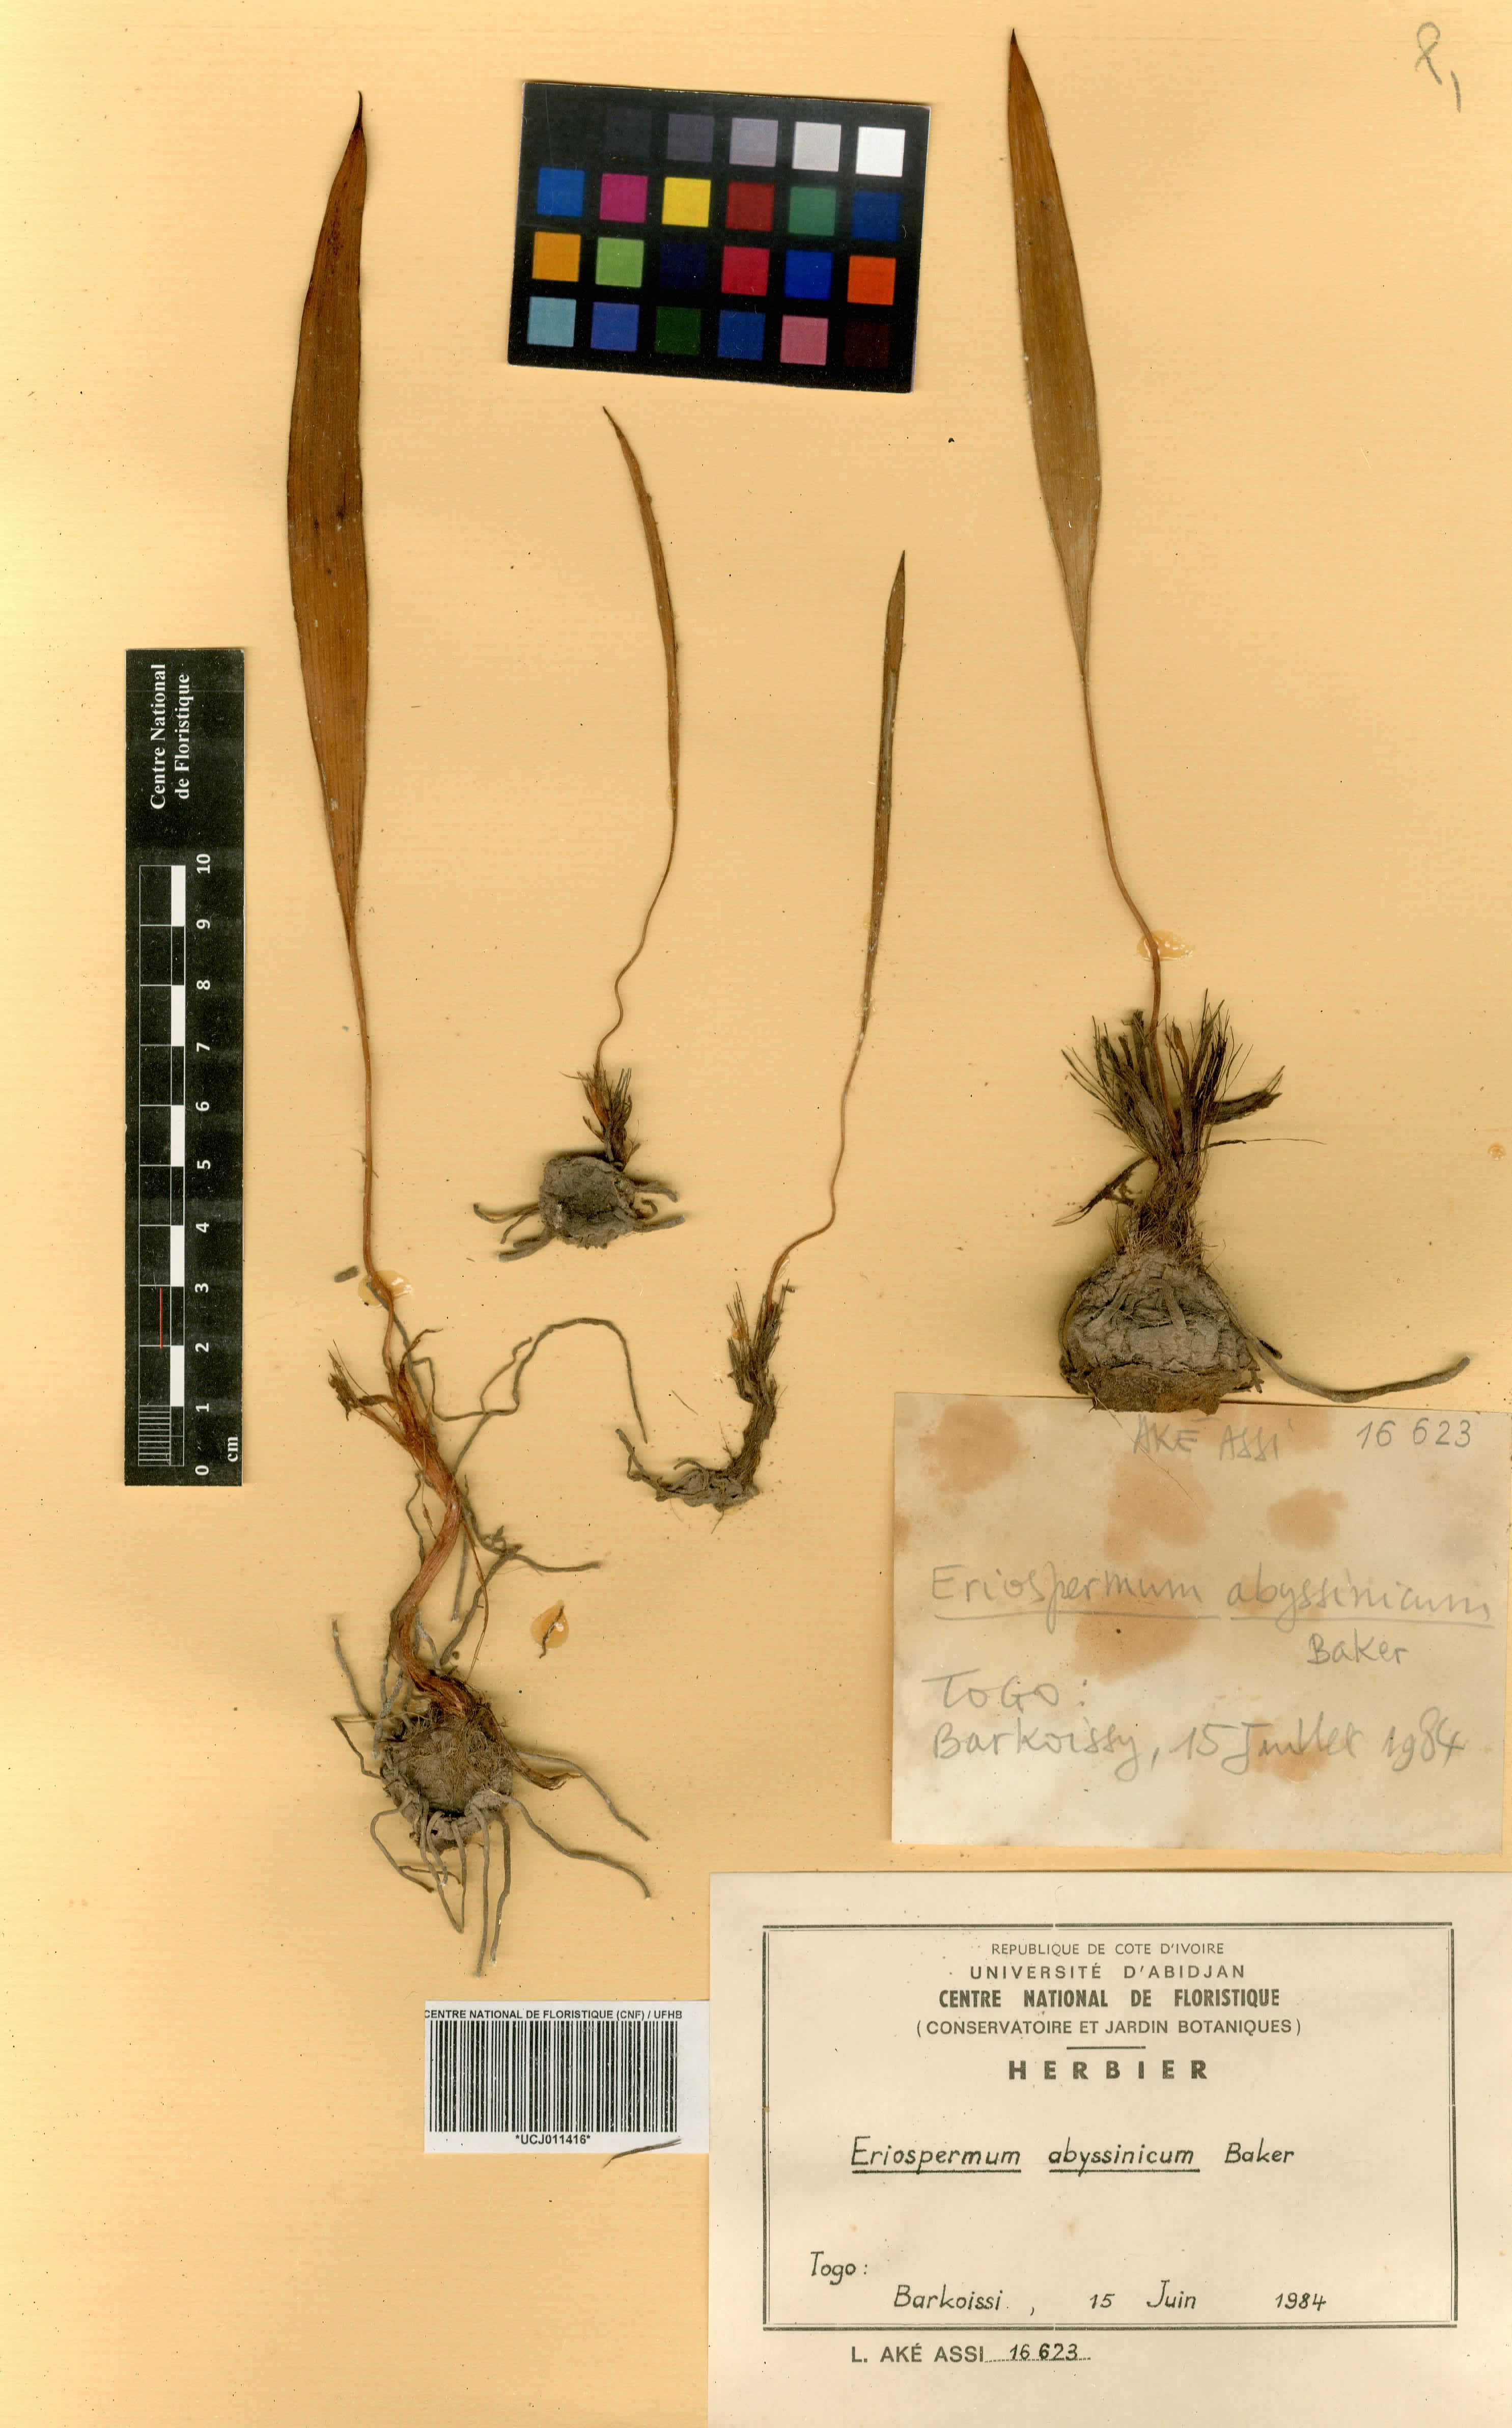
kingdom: Plantae
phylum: Tracheophyta
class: Liliopsida
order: Asparagales
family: Asparagaceae
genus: Eriospermum
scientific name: Eriospermum abyssinicum
